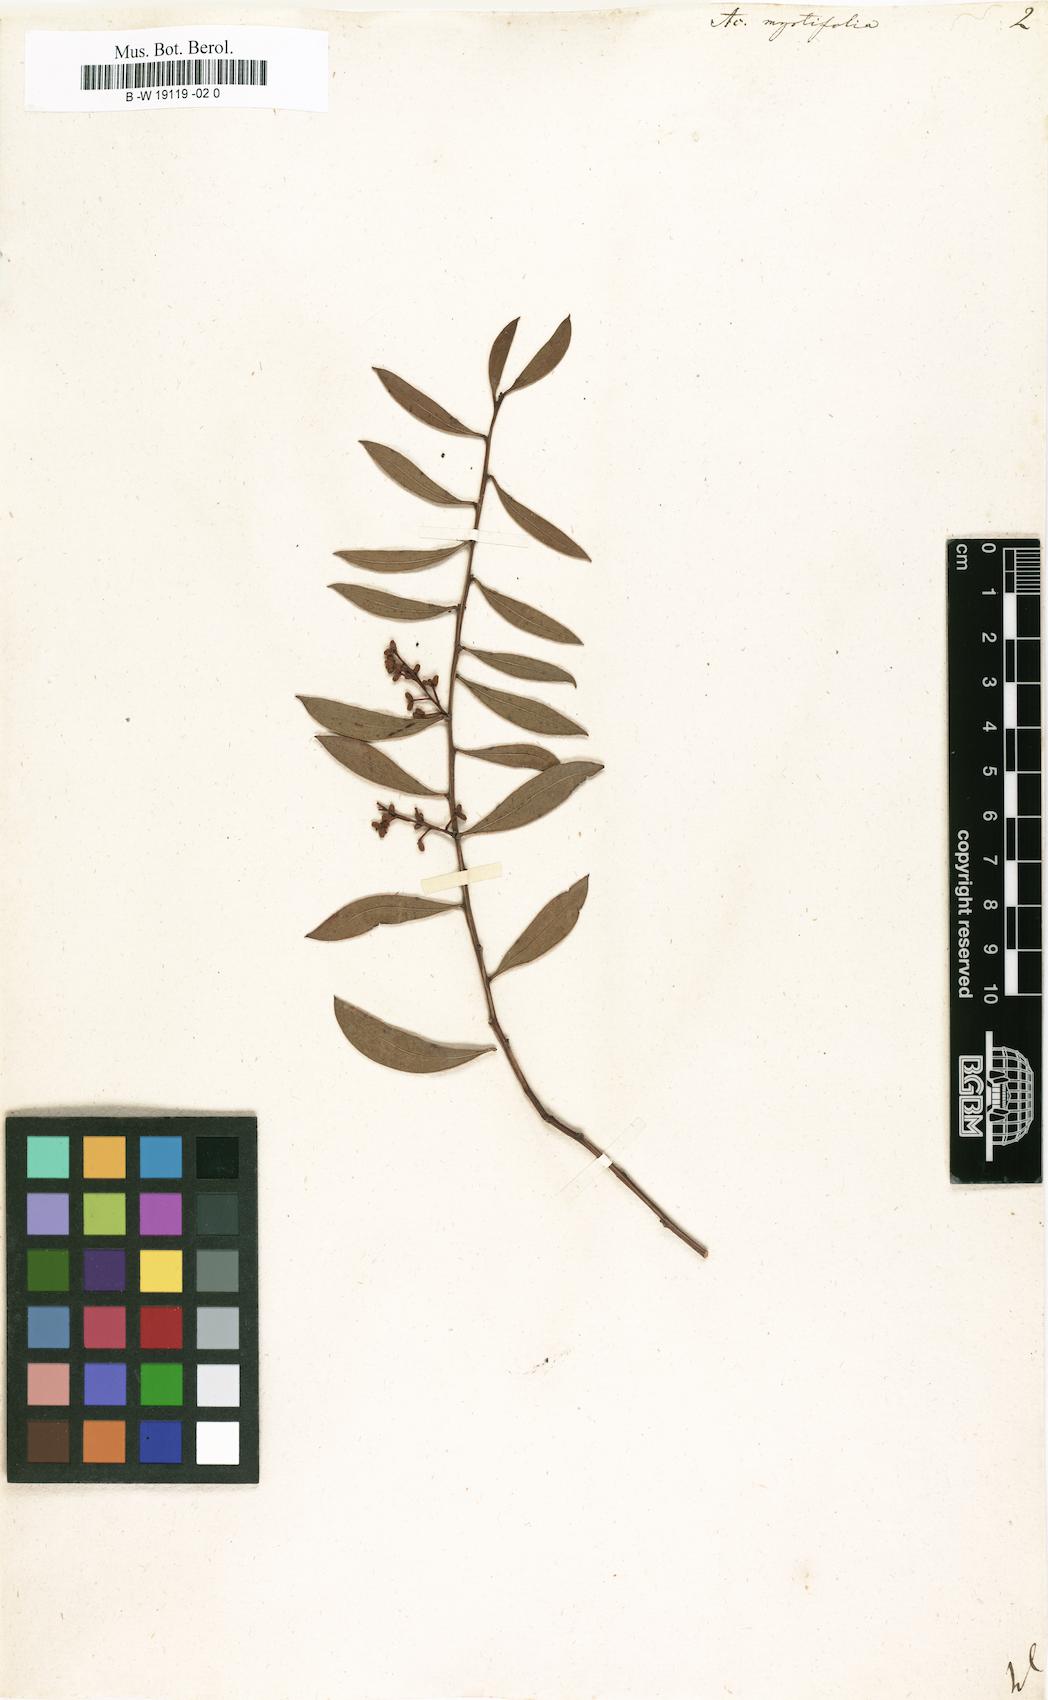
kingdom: Plantae
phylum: Tracheophyta
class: Magnoliopsida
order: Fabales
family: Fabaceae
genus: Acacia
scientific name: Acacia myrtifolia
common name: Myrtle wattle
